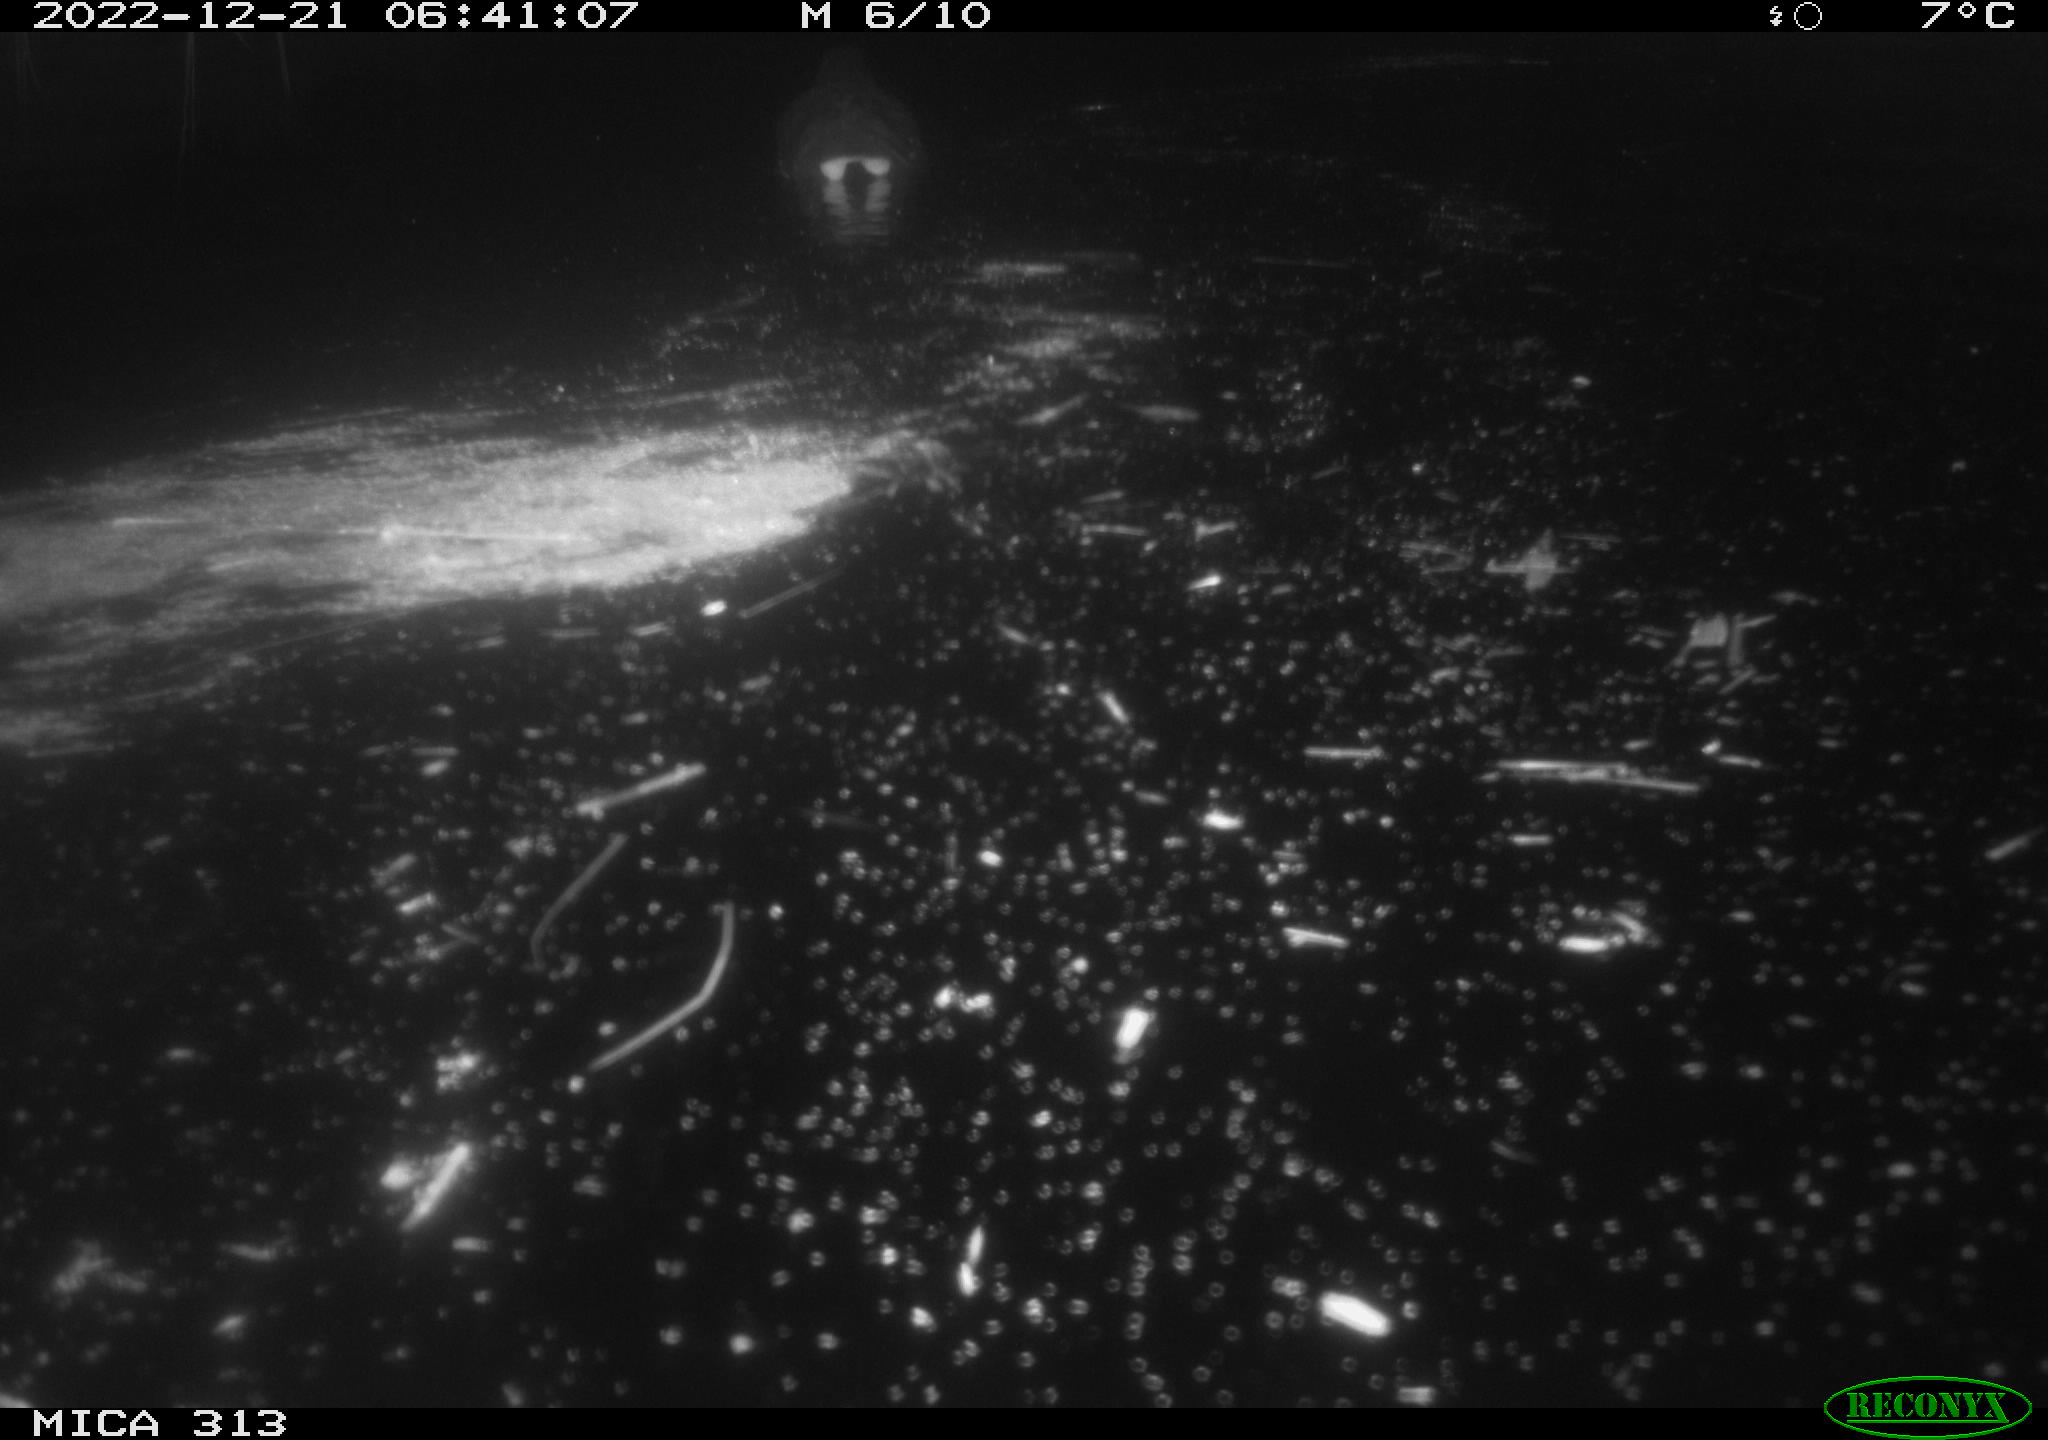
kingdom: Animalia
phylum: Chordata
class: Mammalia
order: Rodentia
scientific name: Rodentia
